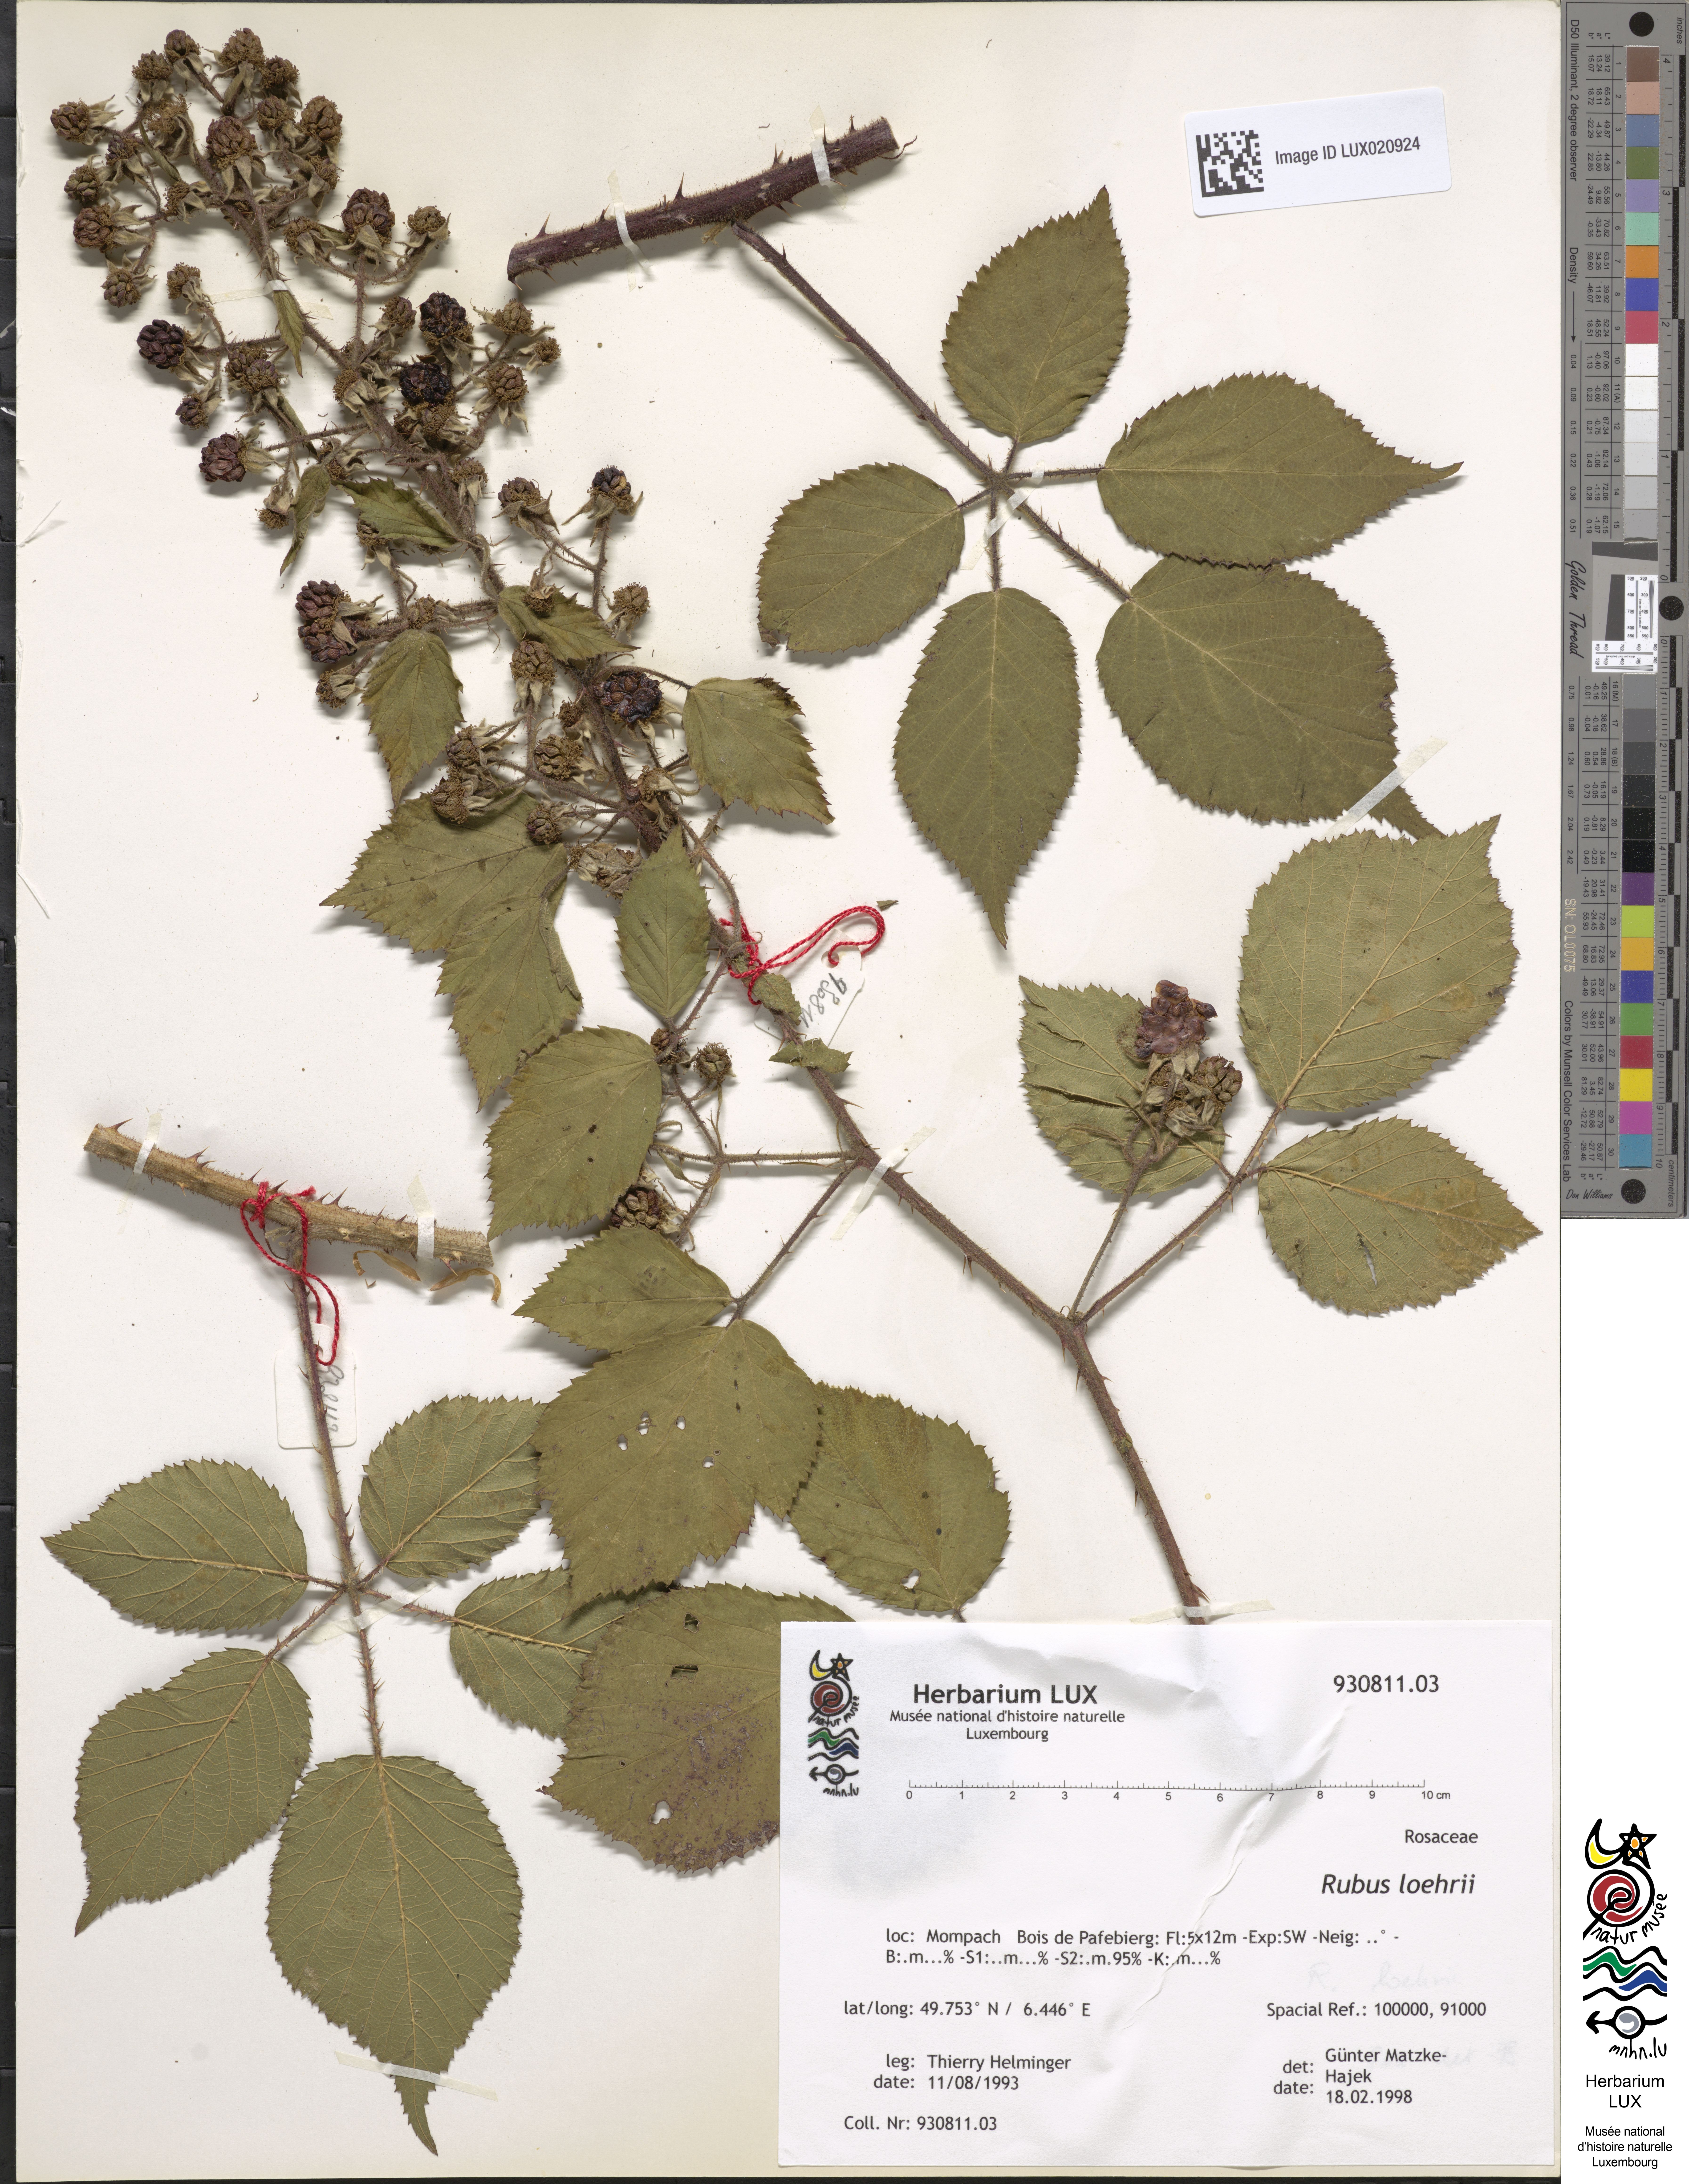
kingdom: Plantae
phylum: Tracheophyta
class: Magnoliopsida
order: Rosales
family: Rosaceae
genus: Rubus
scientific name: Rubus loehrii
